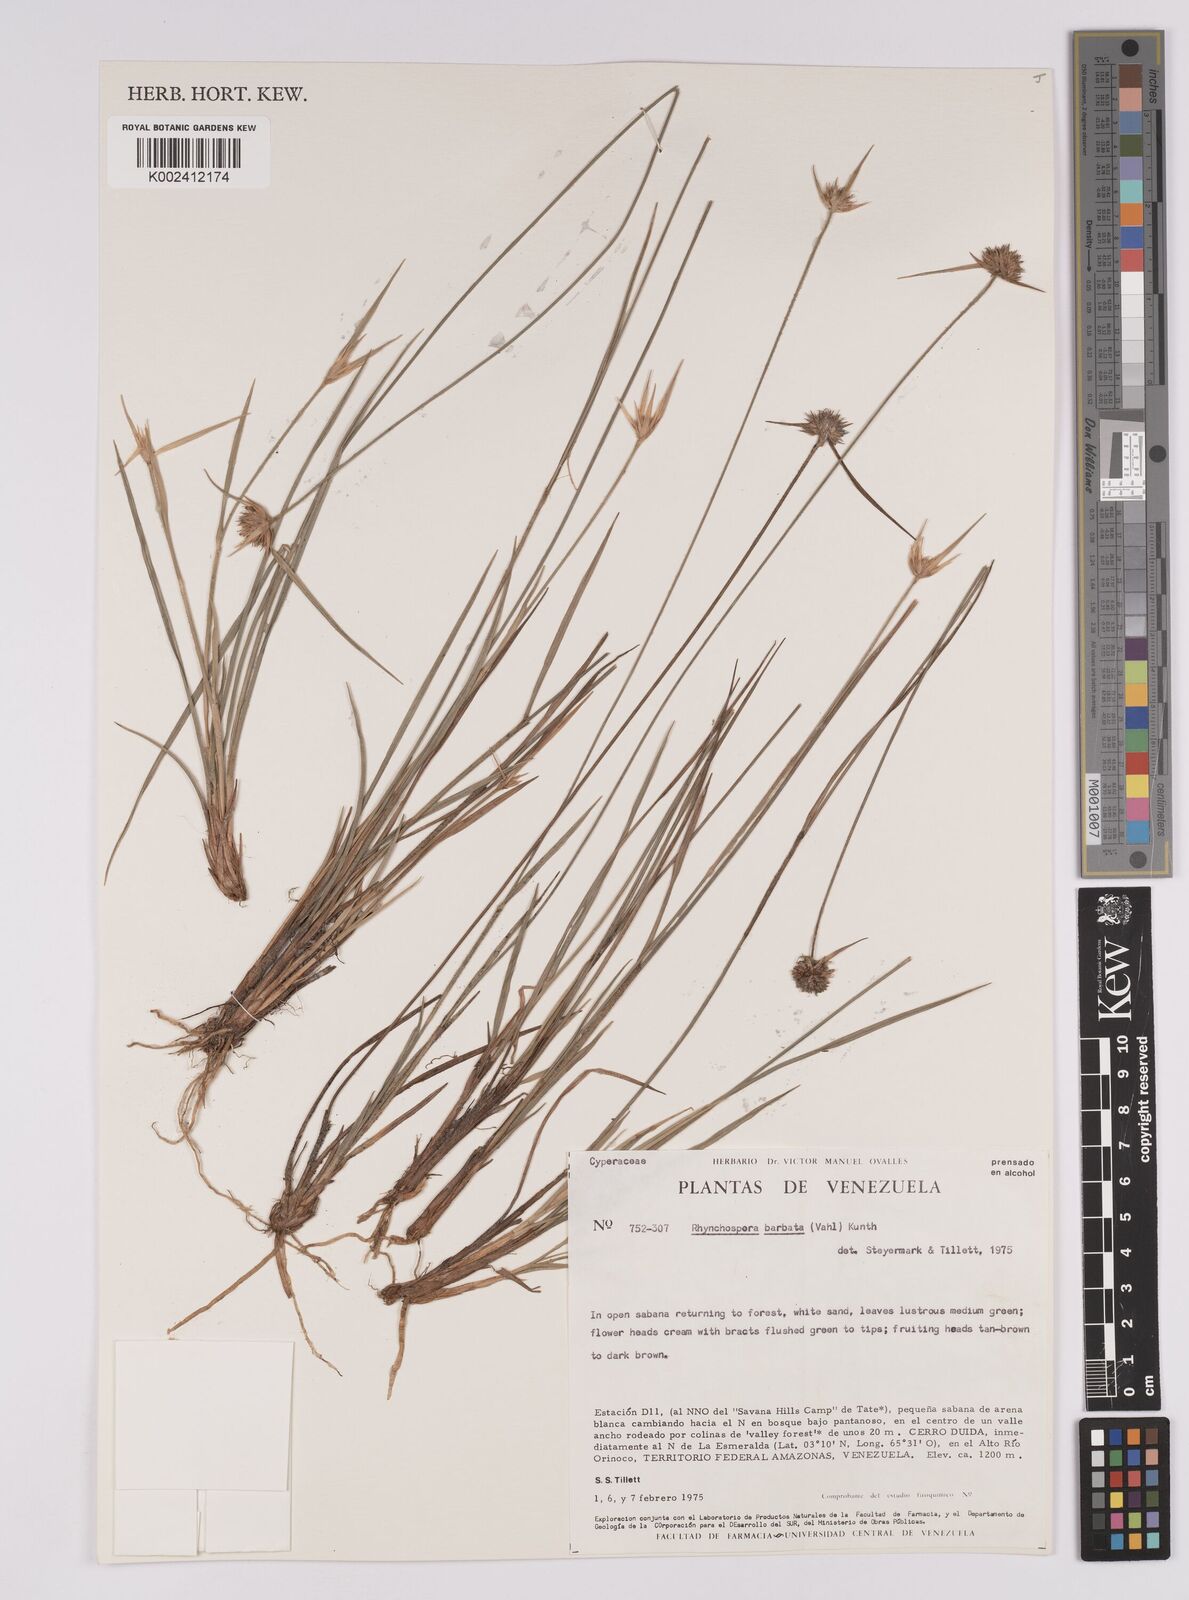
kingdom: Plantae
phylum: Tracheophyta
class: Liliopsida
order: Poales
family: Cyperaceae
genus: Rhynchospora
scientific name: Rhynchospora barbata
